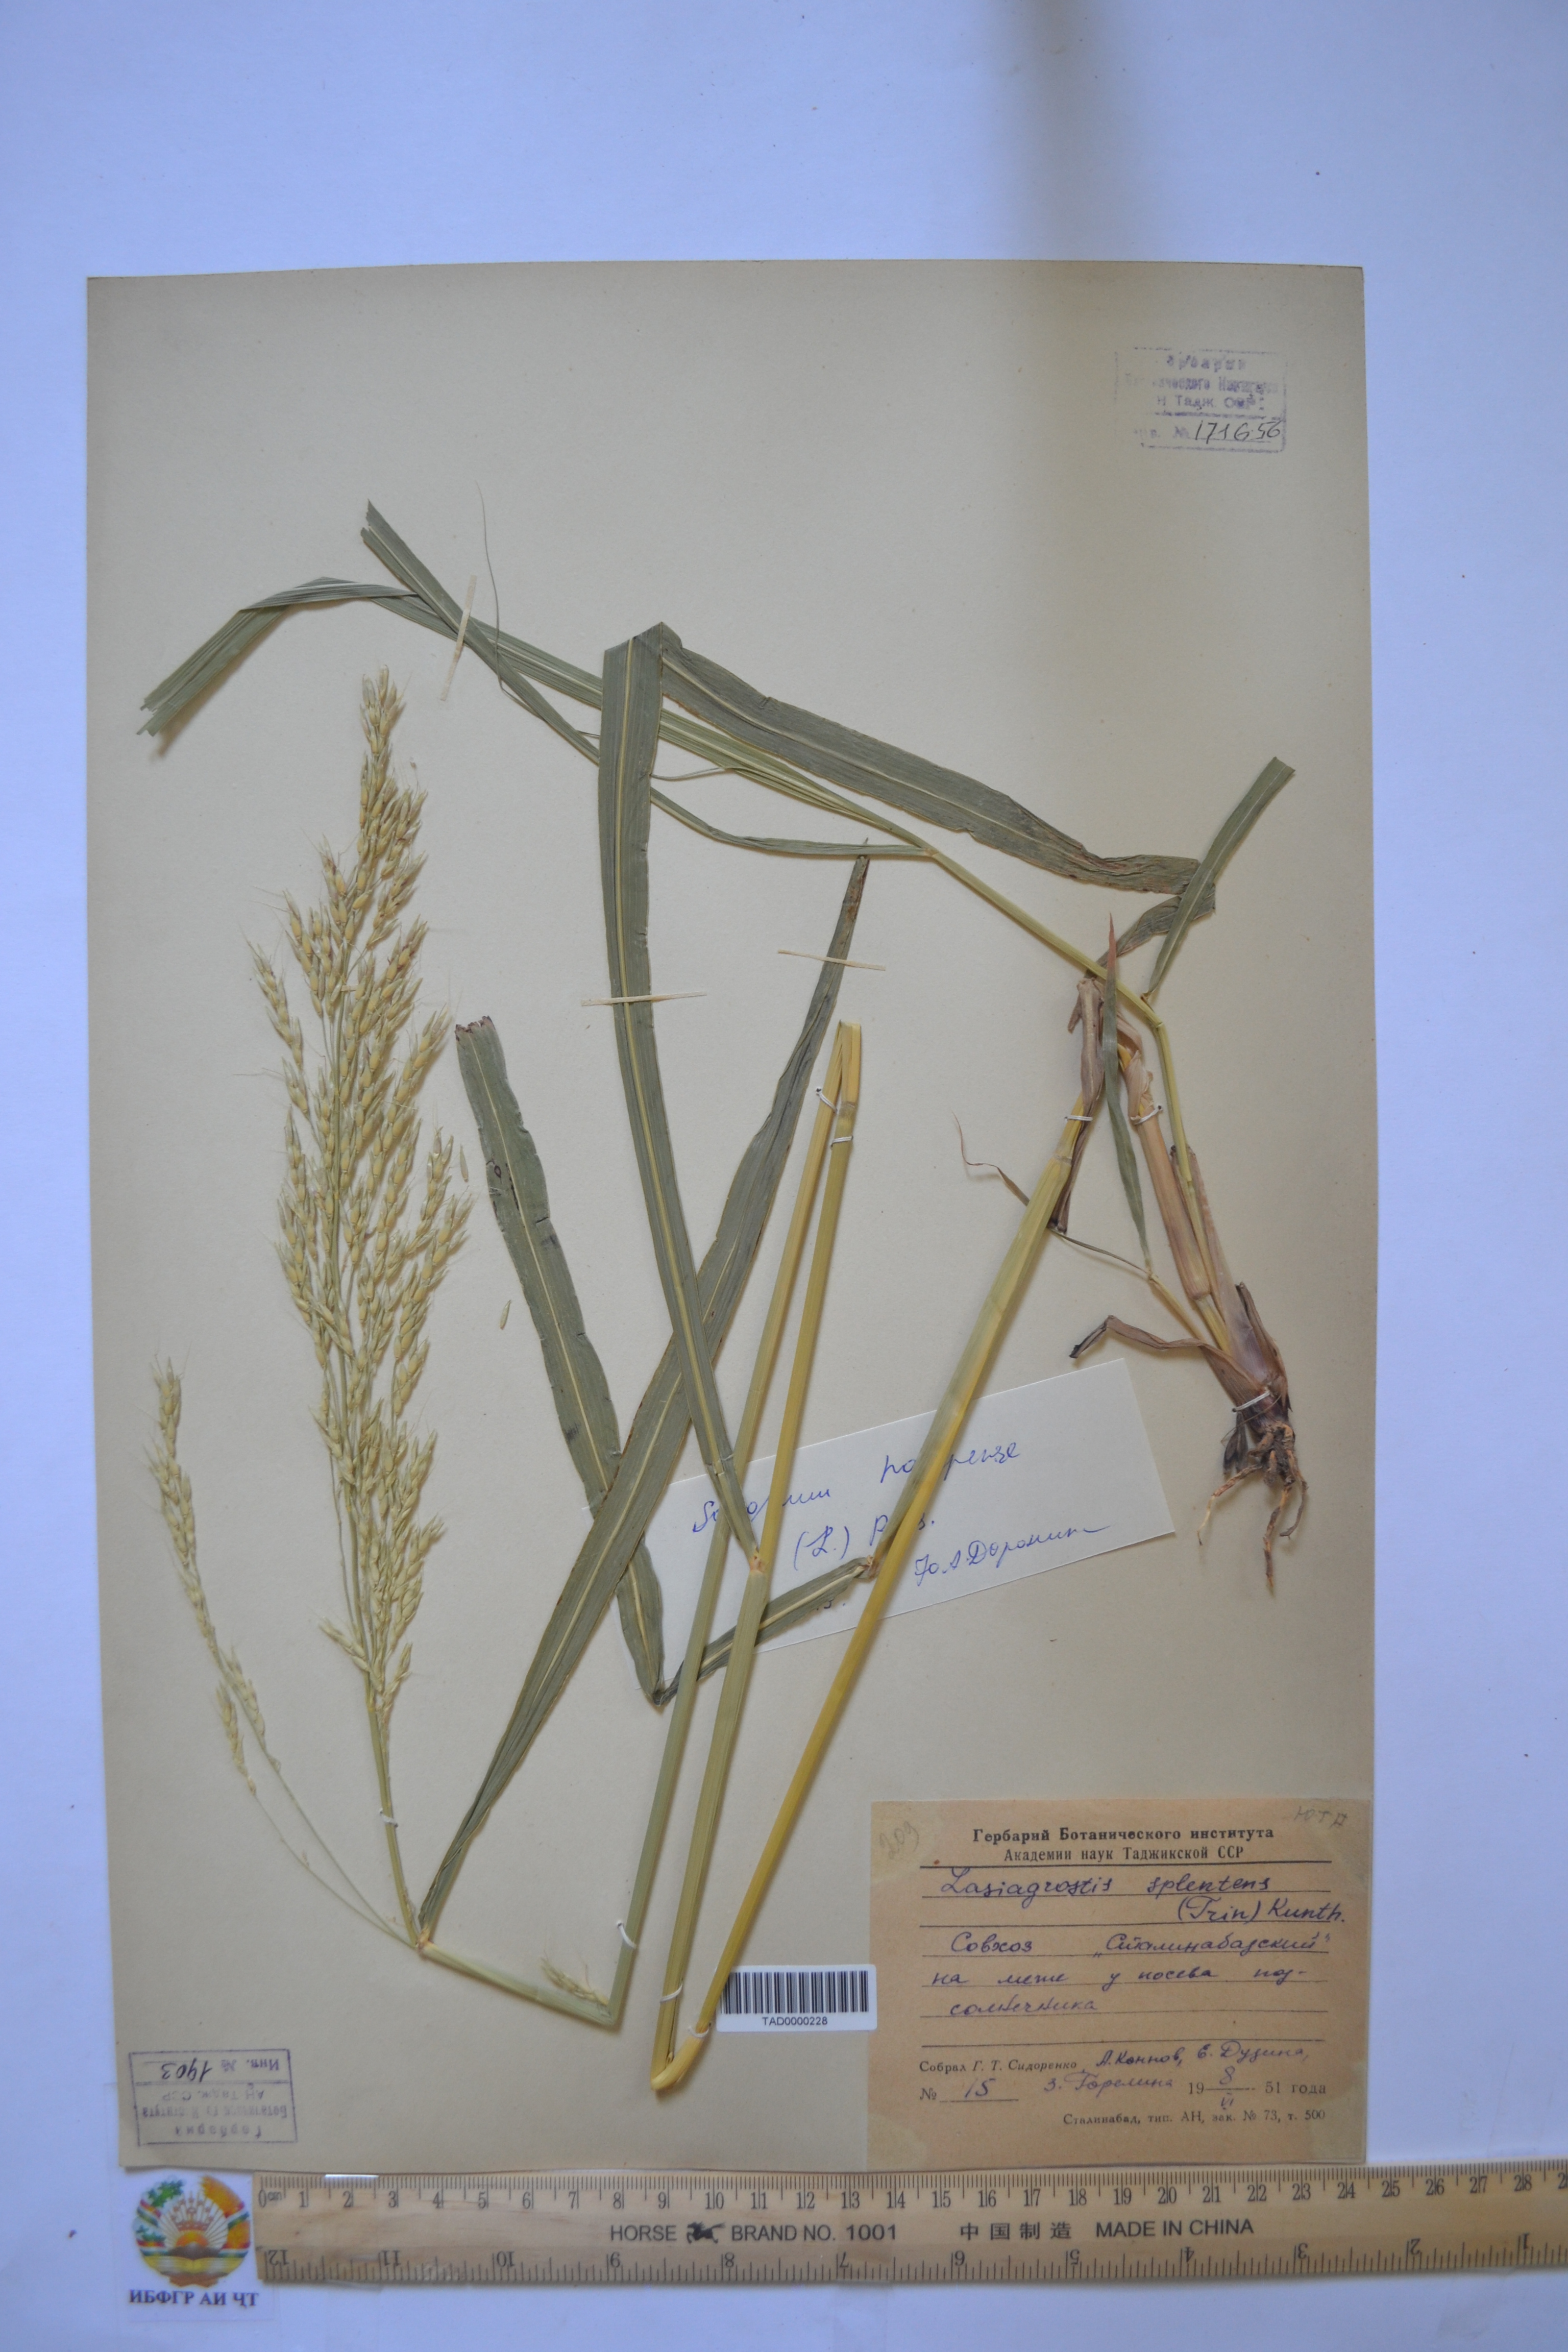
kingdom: Plantae
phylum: Tracheophyta
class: Liliopsida
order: Poales
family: Poaceae
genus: Neotrinia
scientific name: Neotrinia splendens
